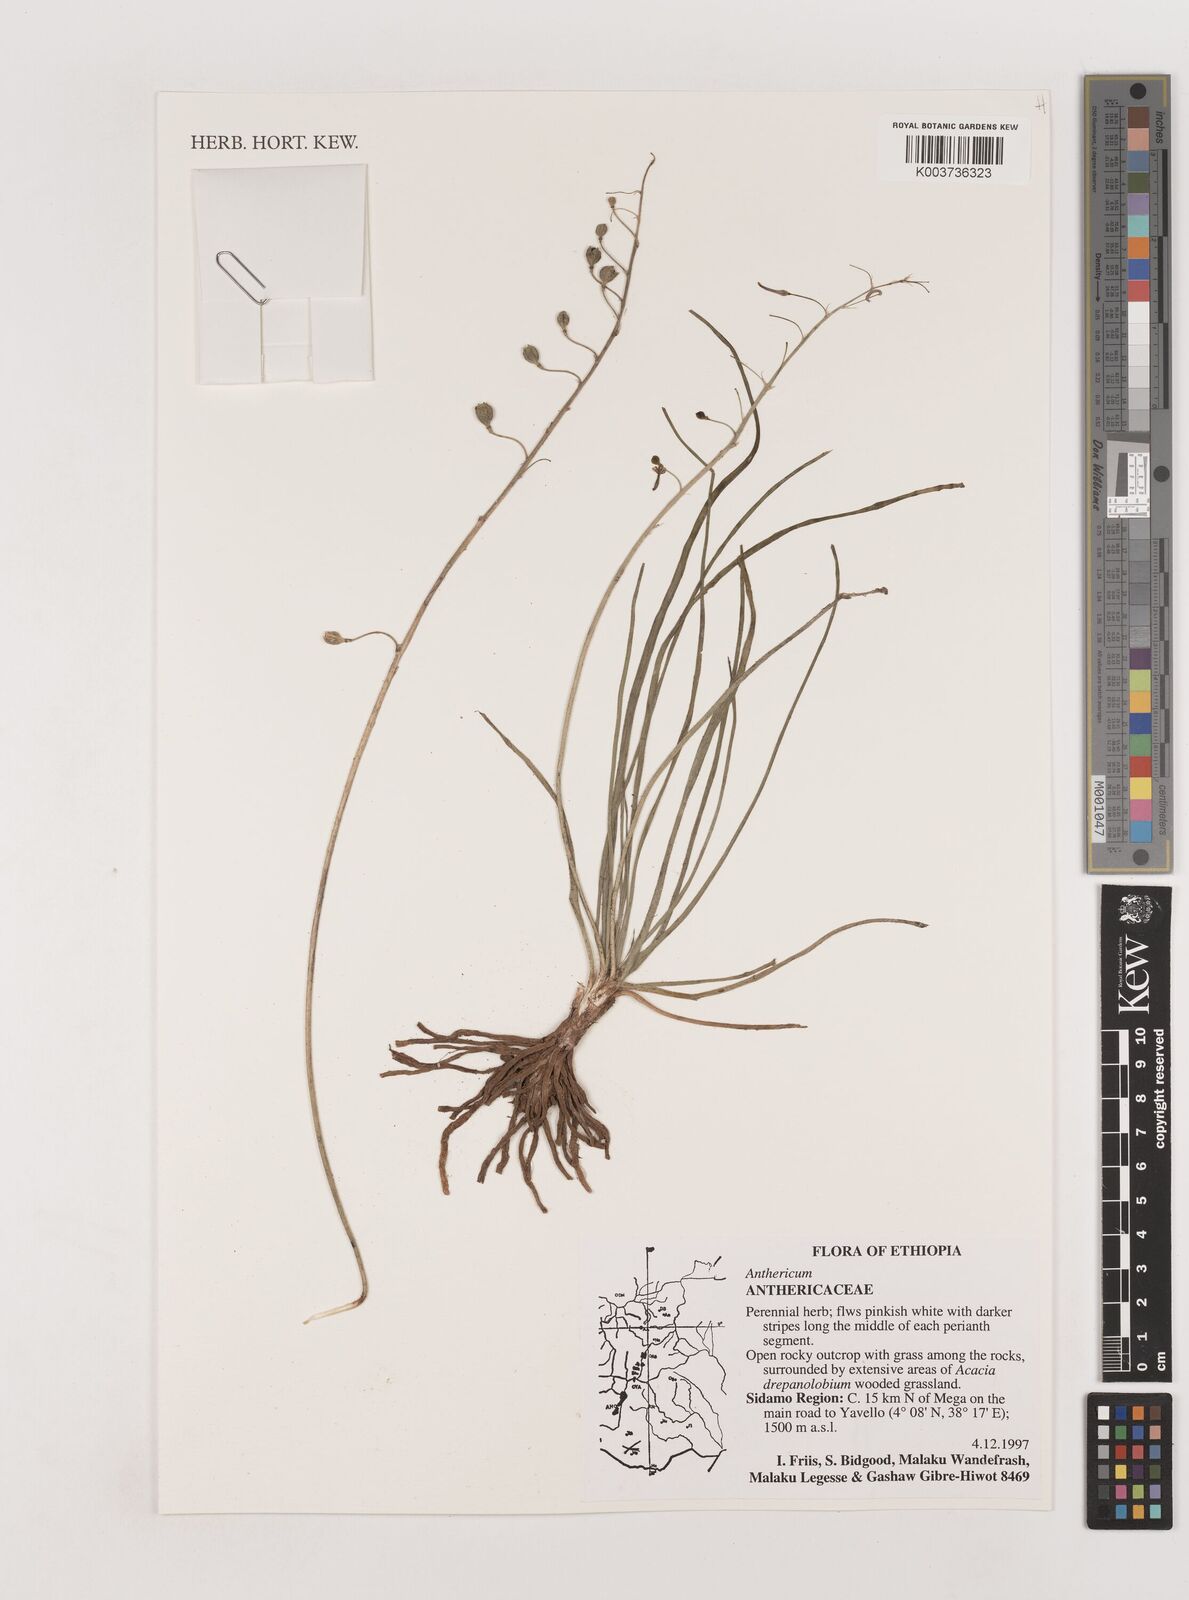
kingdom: Plantae
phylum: Tracheophyta
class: Liliopsida
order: Asparagales
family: Asparagaceae
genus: Anthericum
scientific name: Anthericum
